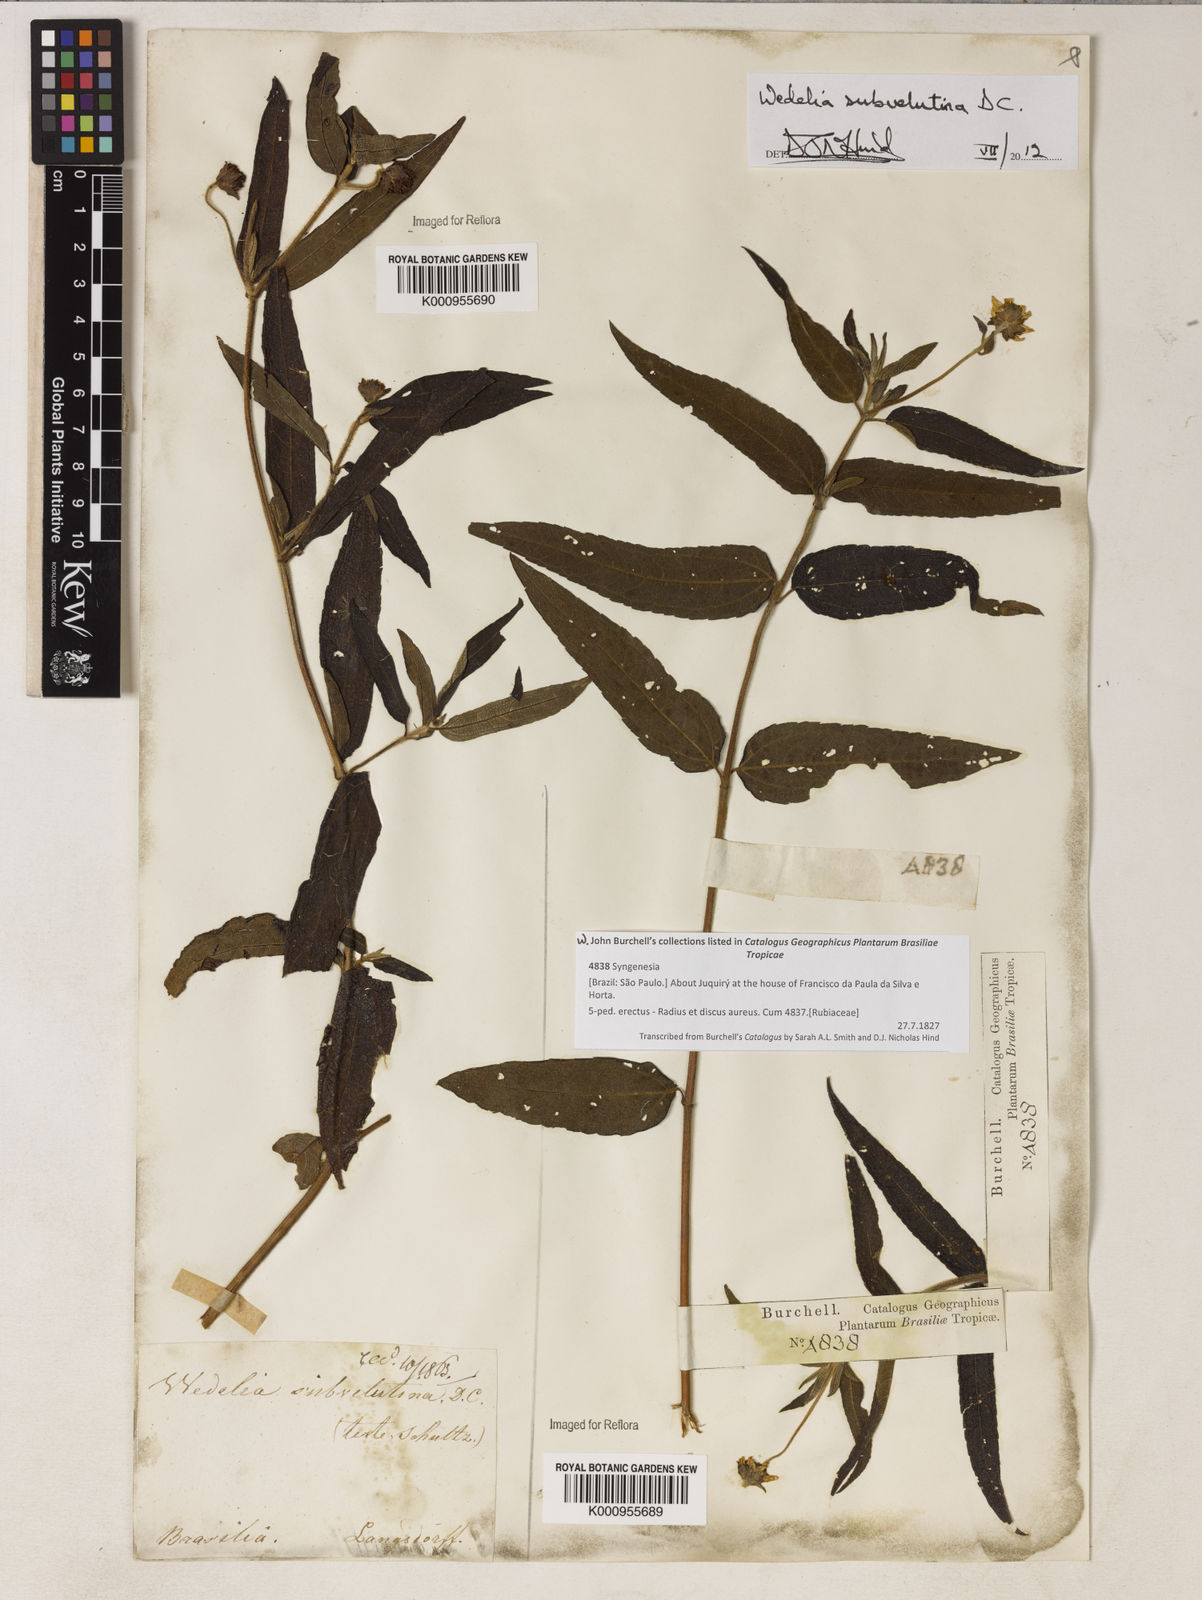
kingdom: Plantae
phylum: Tracheophyta
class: Magnoliopsida
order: Asterales
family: Asteraceae
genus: Wedelia
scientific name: Wedelia subvelutina
